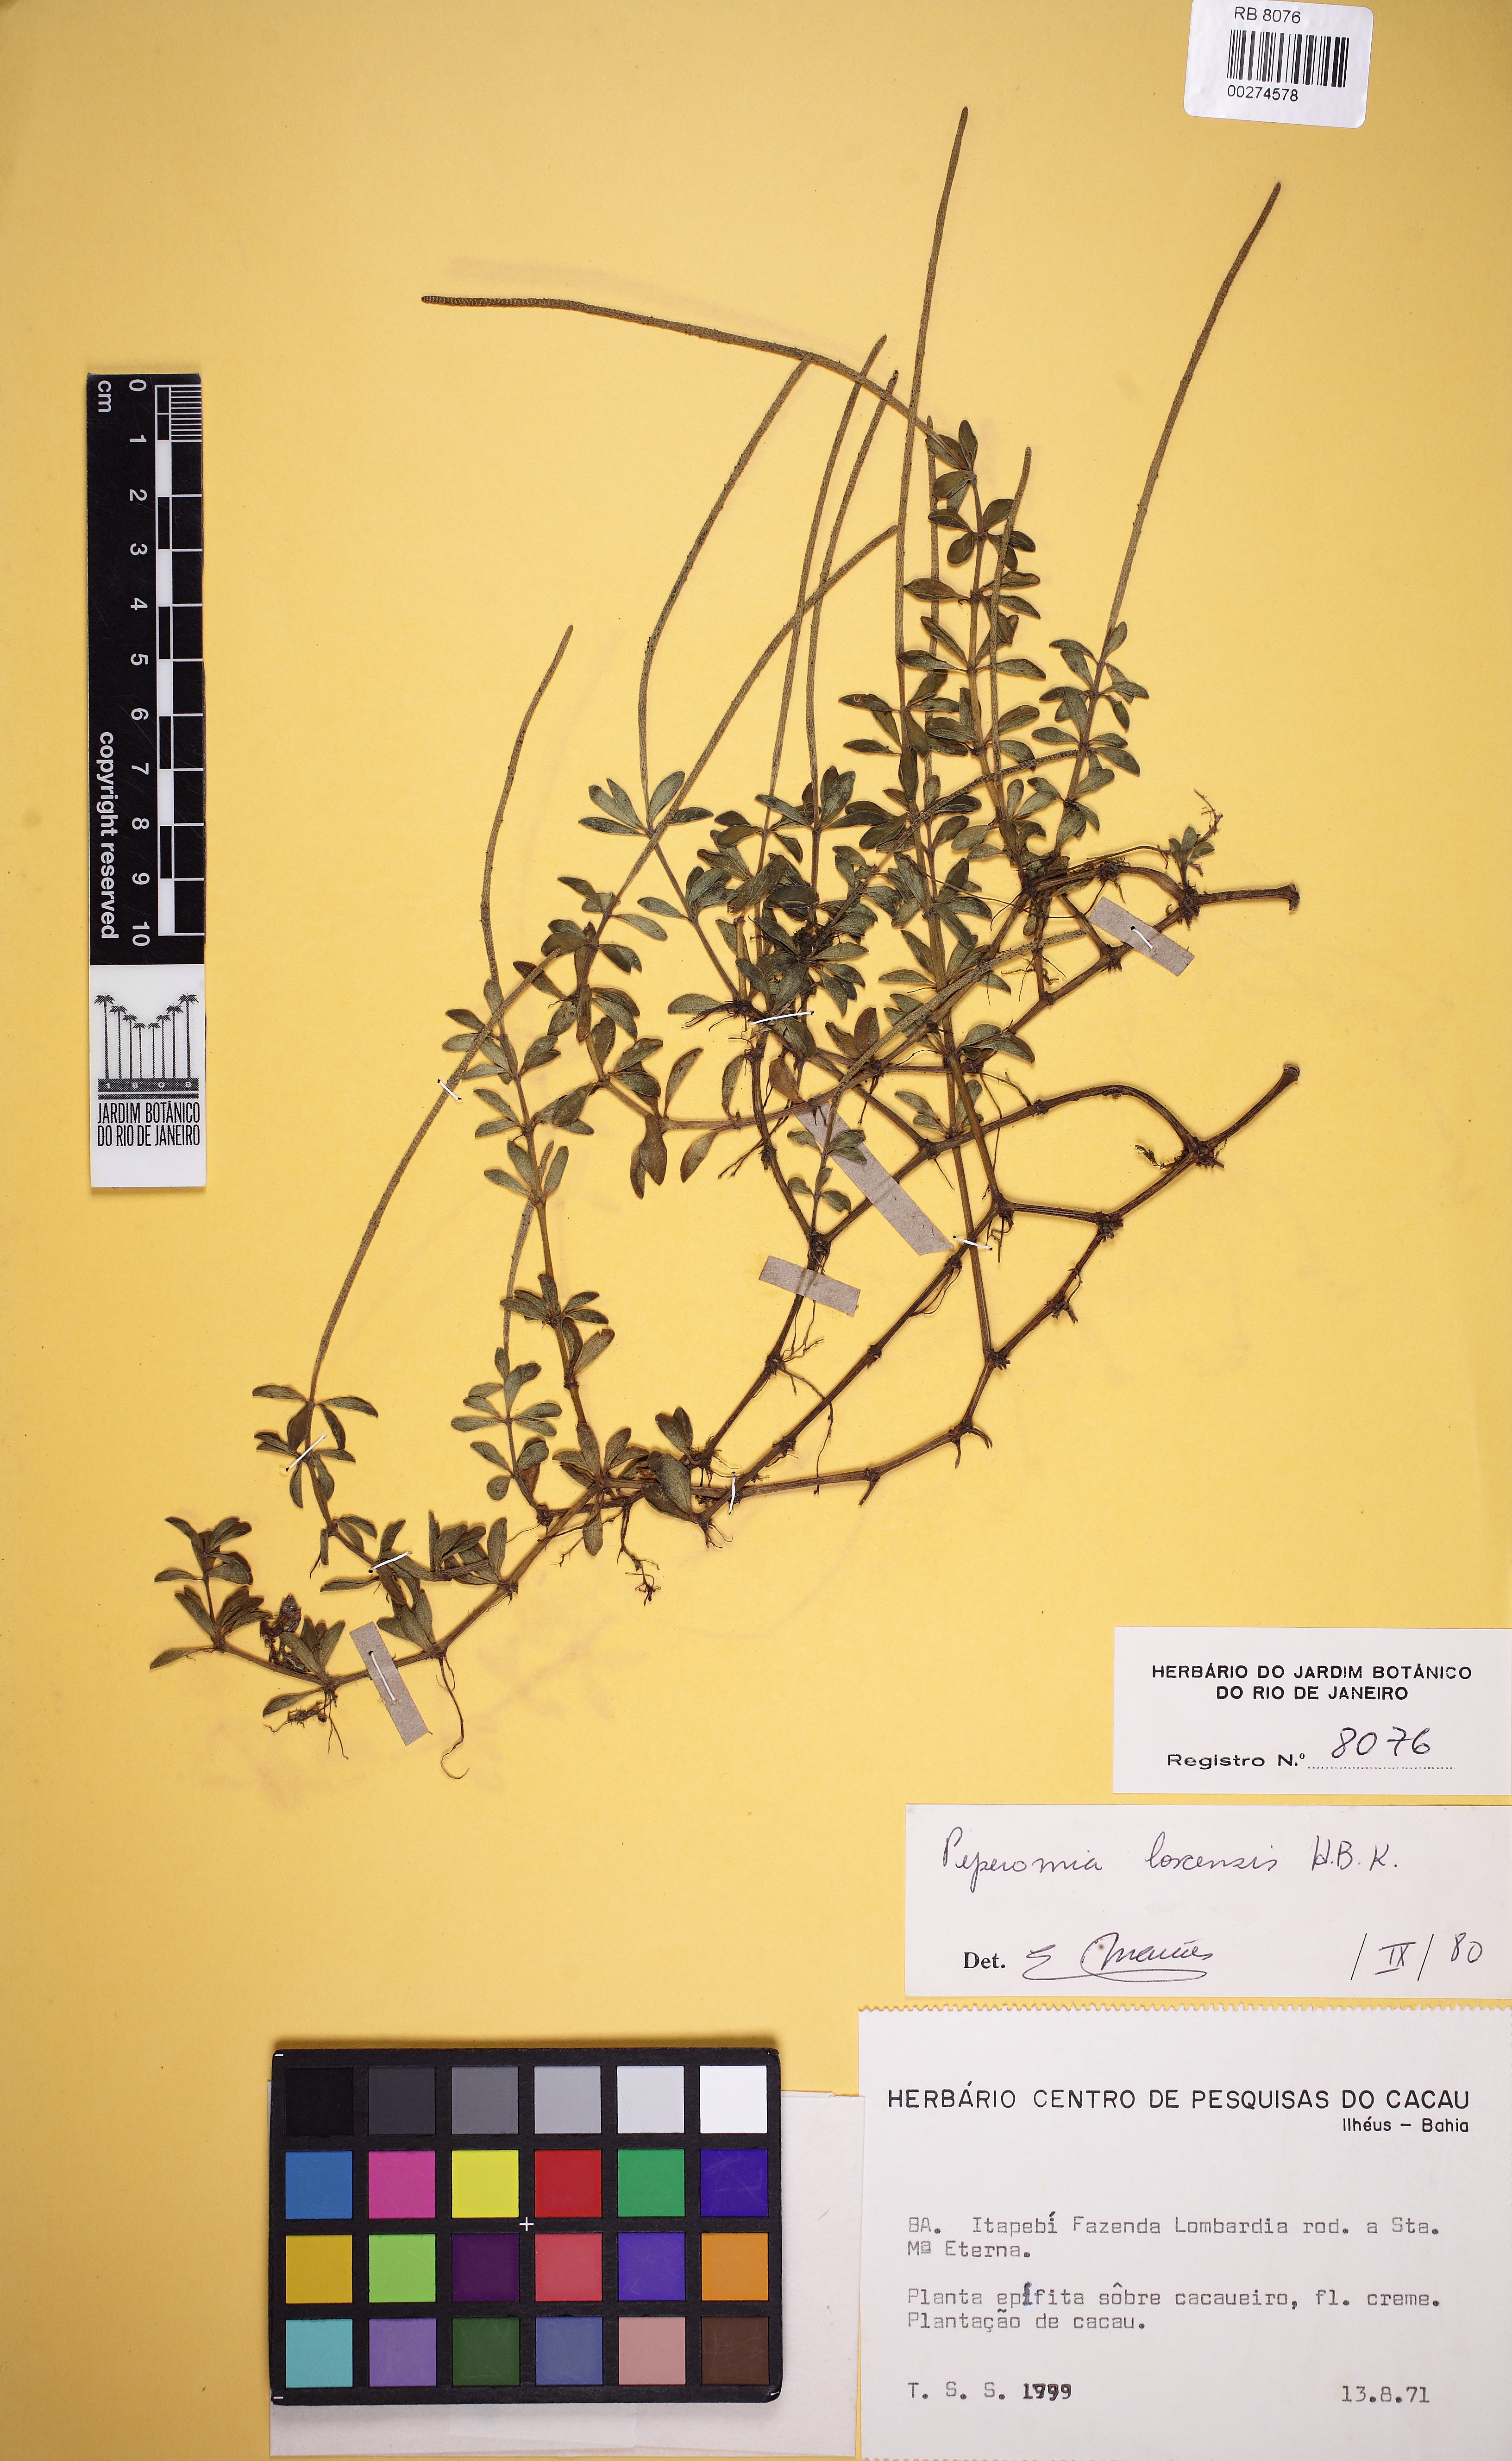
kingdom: Plantae
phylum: Tracheophyta
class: Magnoliopsida
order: Piperales
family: Piperaceae
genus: Peperomia
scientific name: Peperomia loxensis
